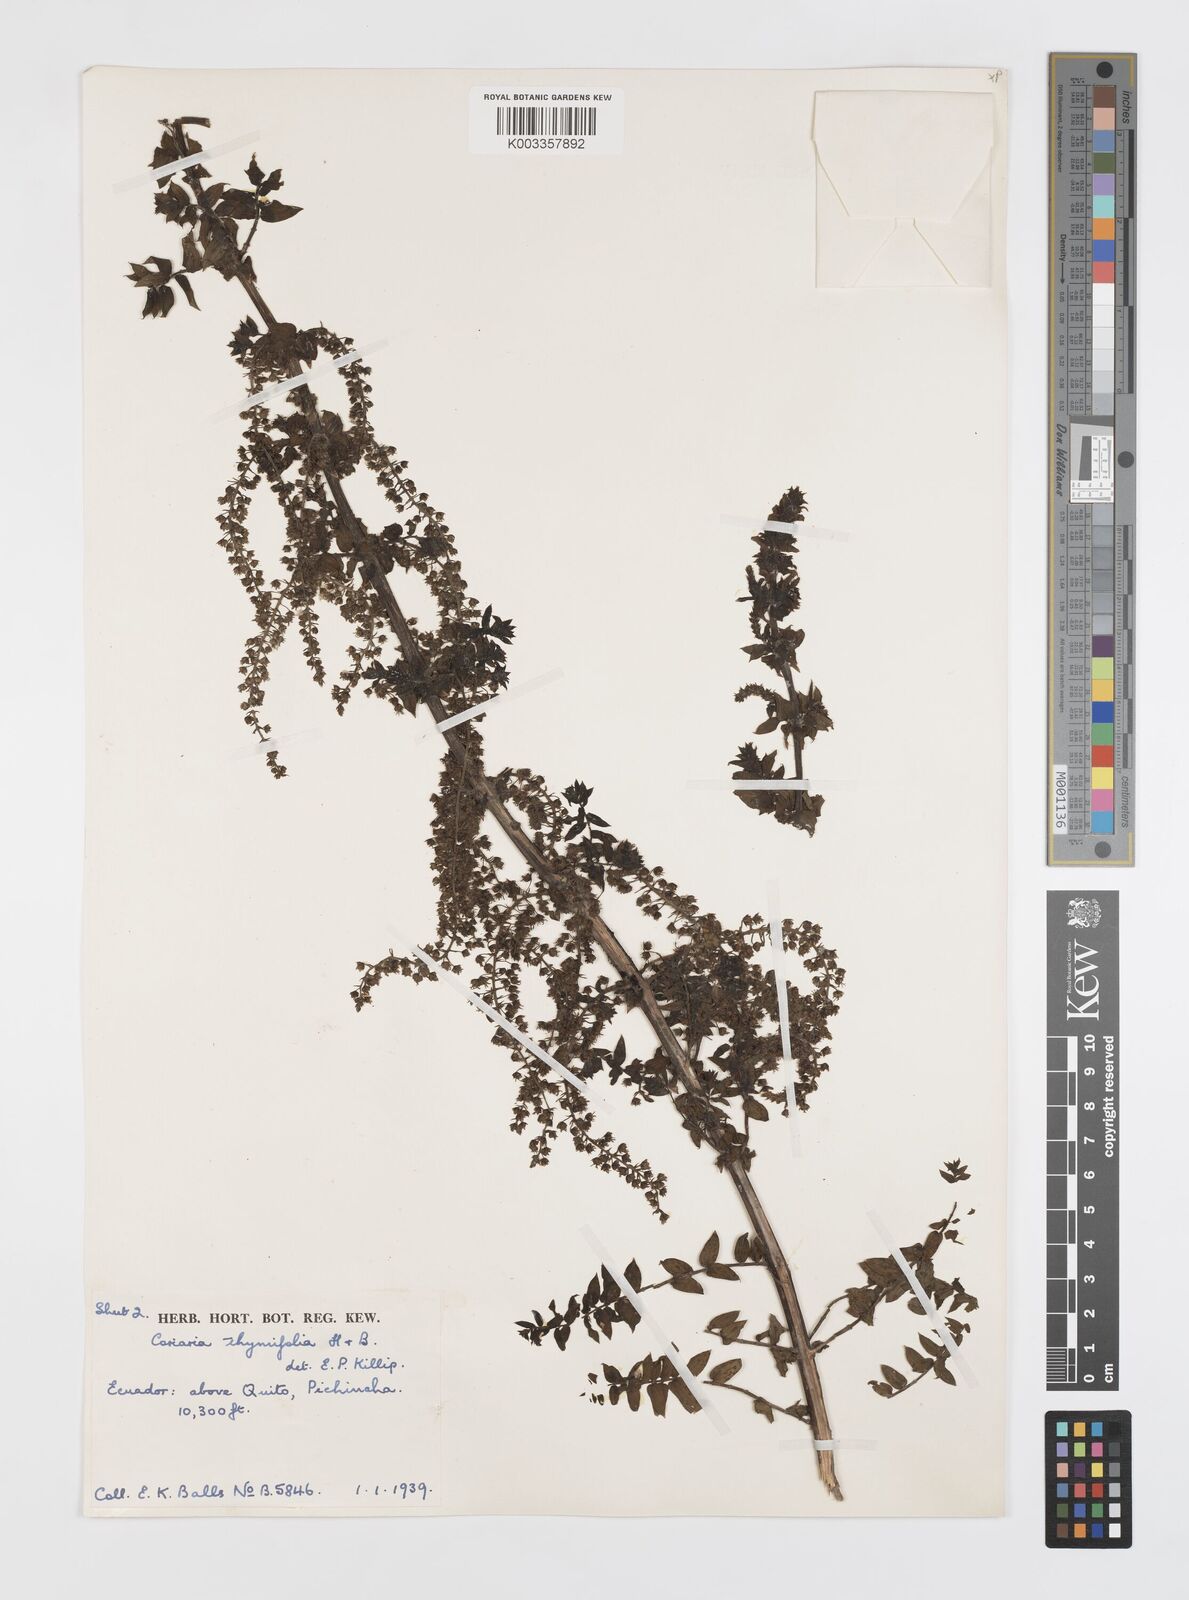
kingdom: Plantae
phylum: Tracheophyta
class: Magnoliopsida
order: Cucurbitales
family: Coriariaceae
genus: Coriaria
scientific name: Coriaria microphylla
